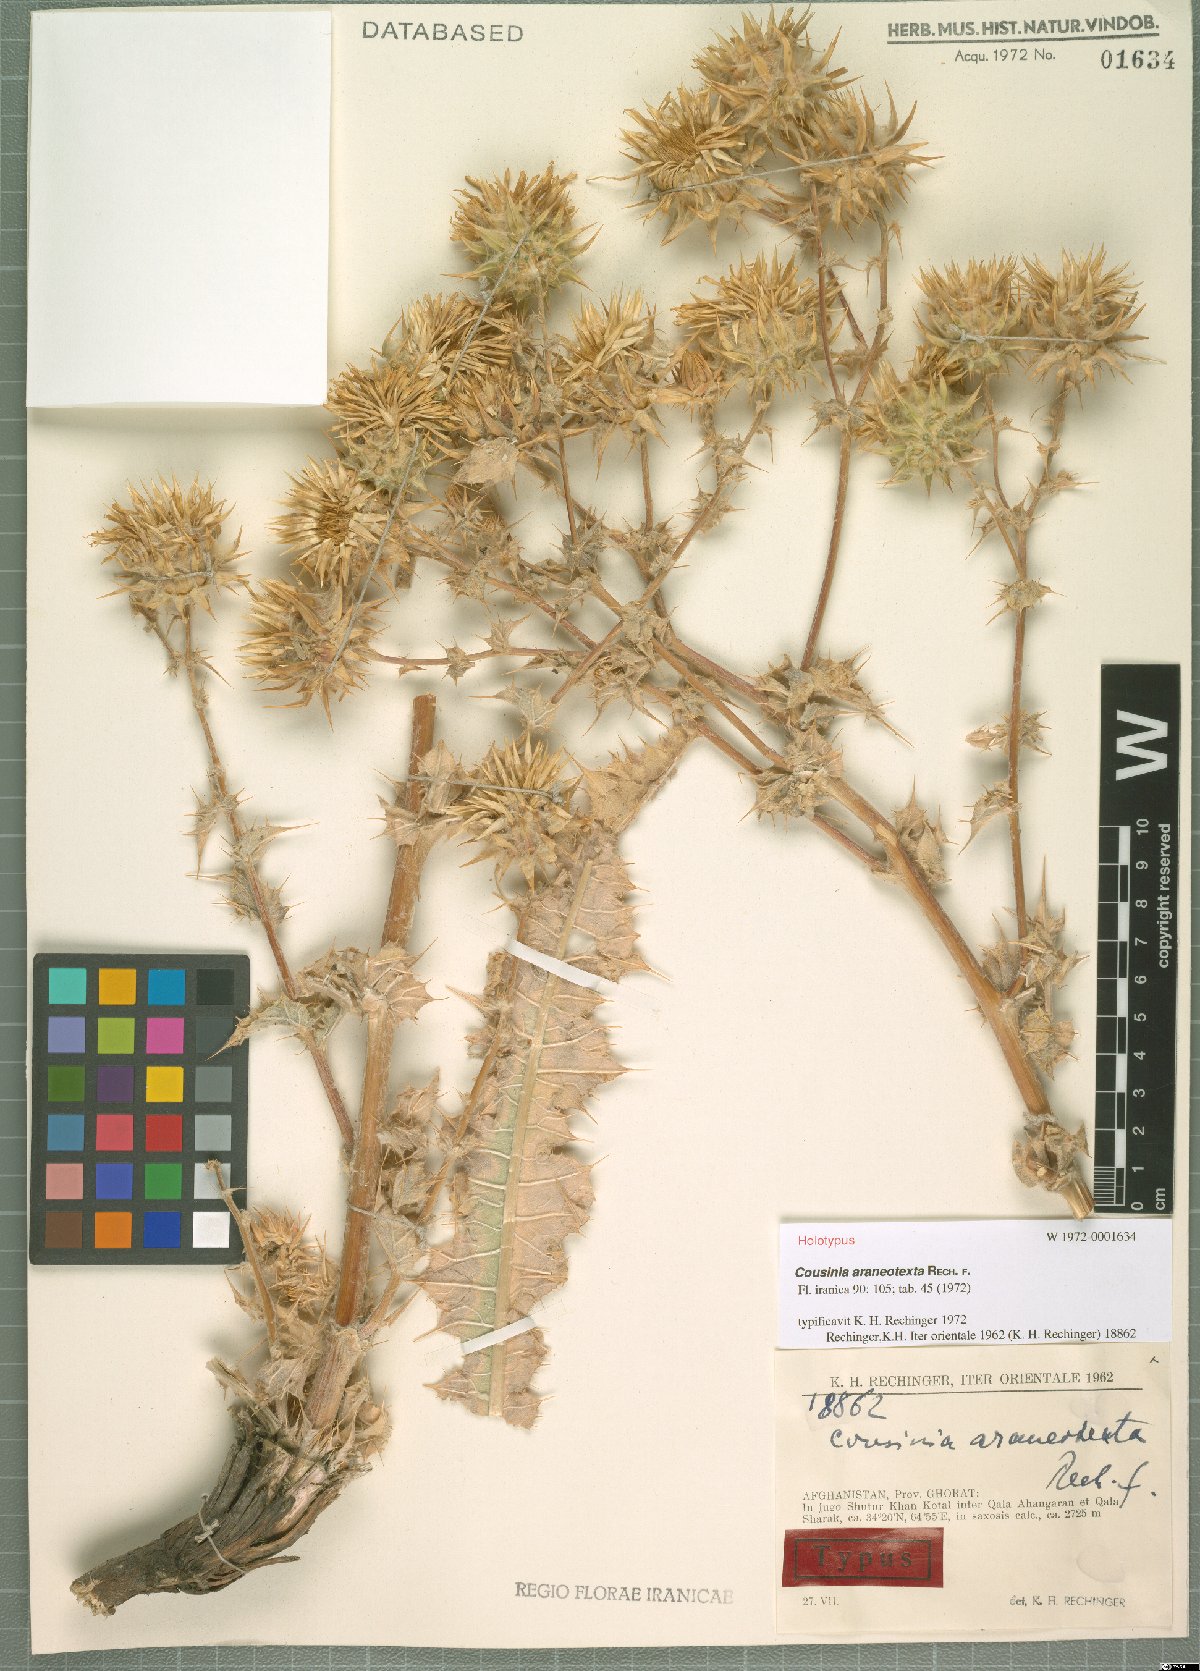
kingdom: Plantae
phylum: Tracheophyta
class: Magnoliopsida
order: Asterales
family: Asteraceae
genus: Cousinia
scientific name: Cousinia araneotexta
